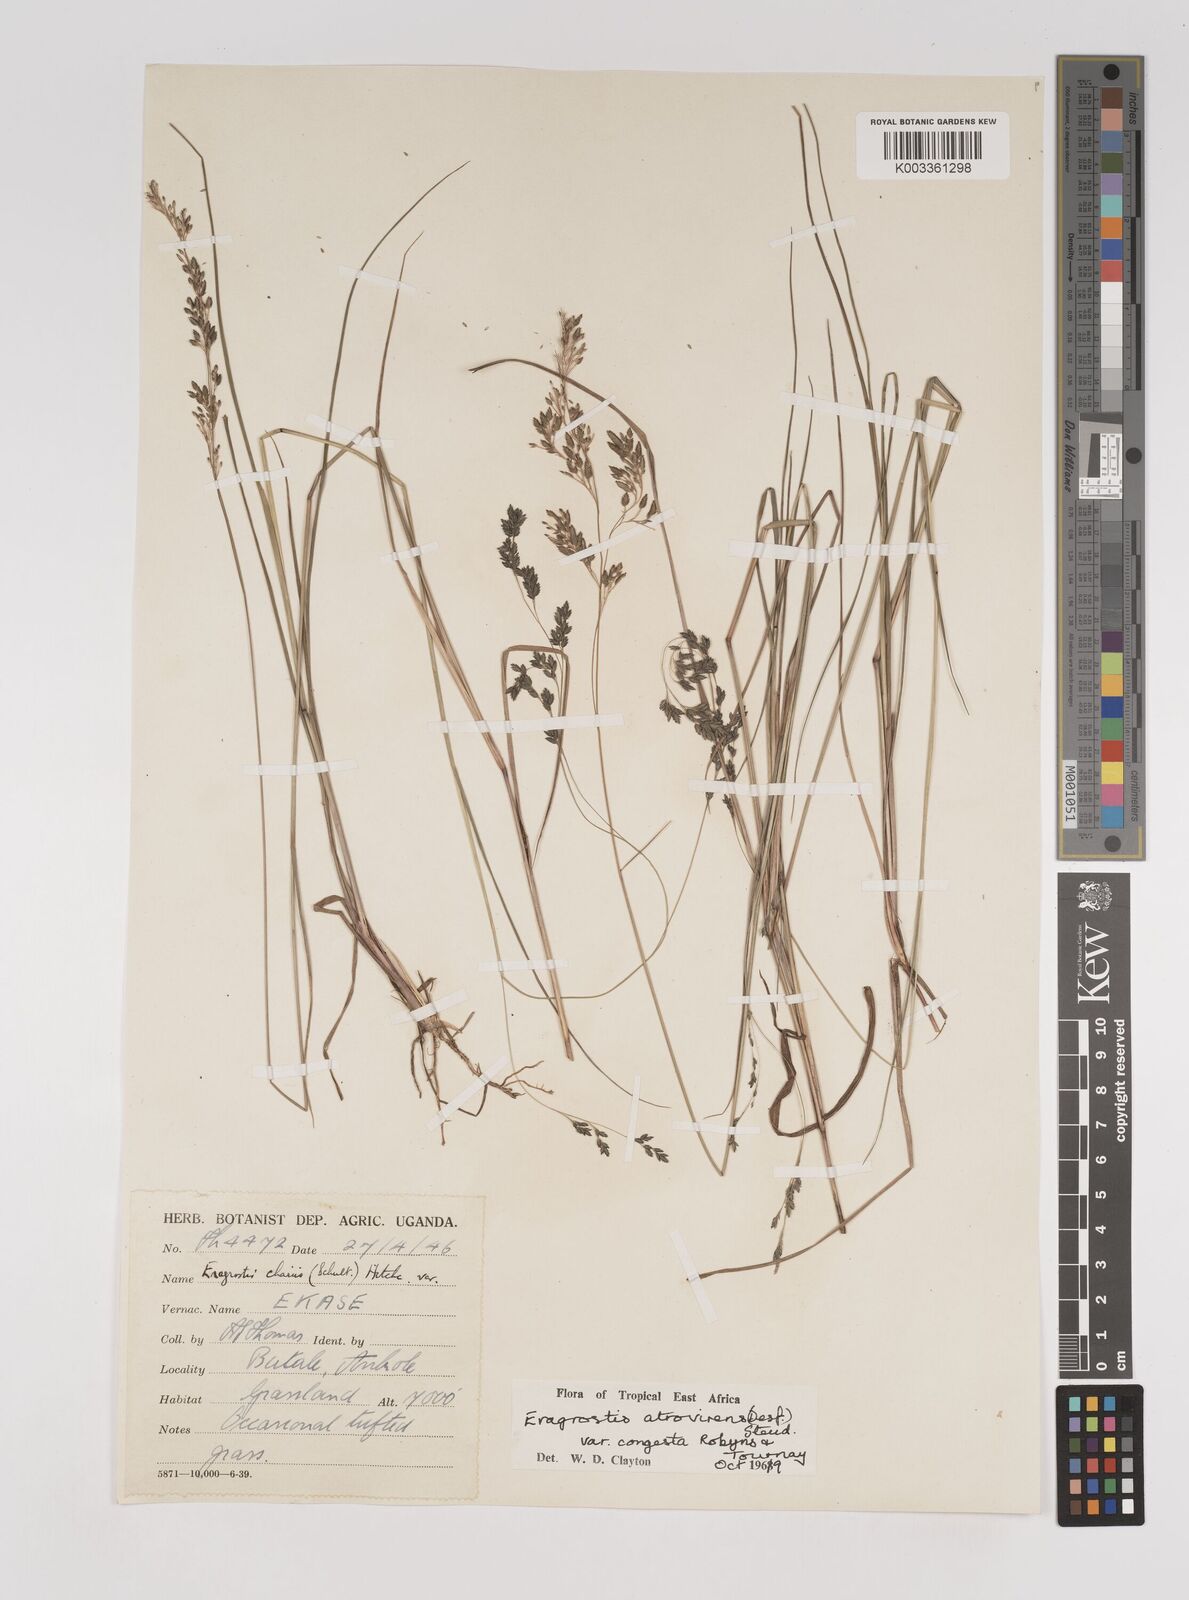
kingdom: Plantae
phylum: Tracheophyta
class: Liliopsida
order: Poales
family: Poaceae
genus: Eragrostis
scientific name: Eragrostis botryodes
